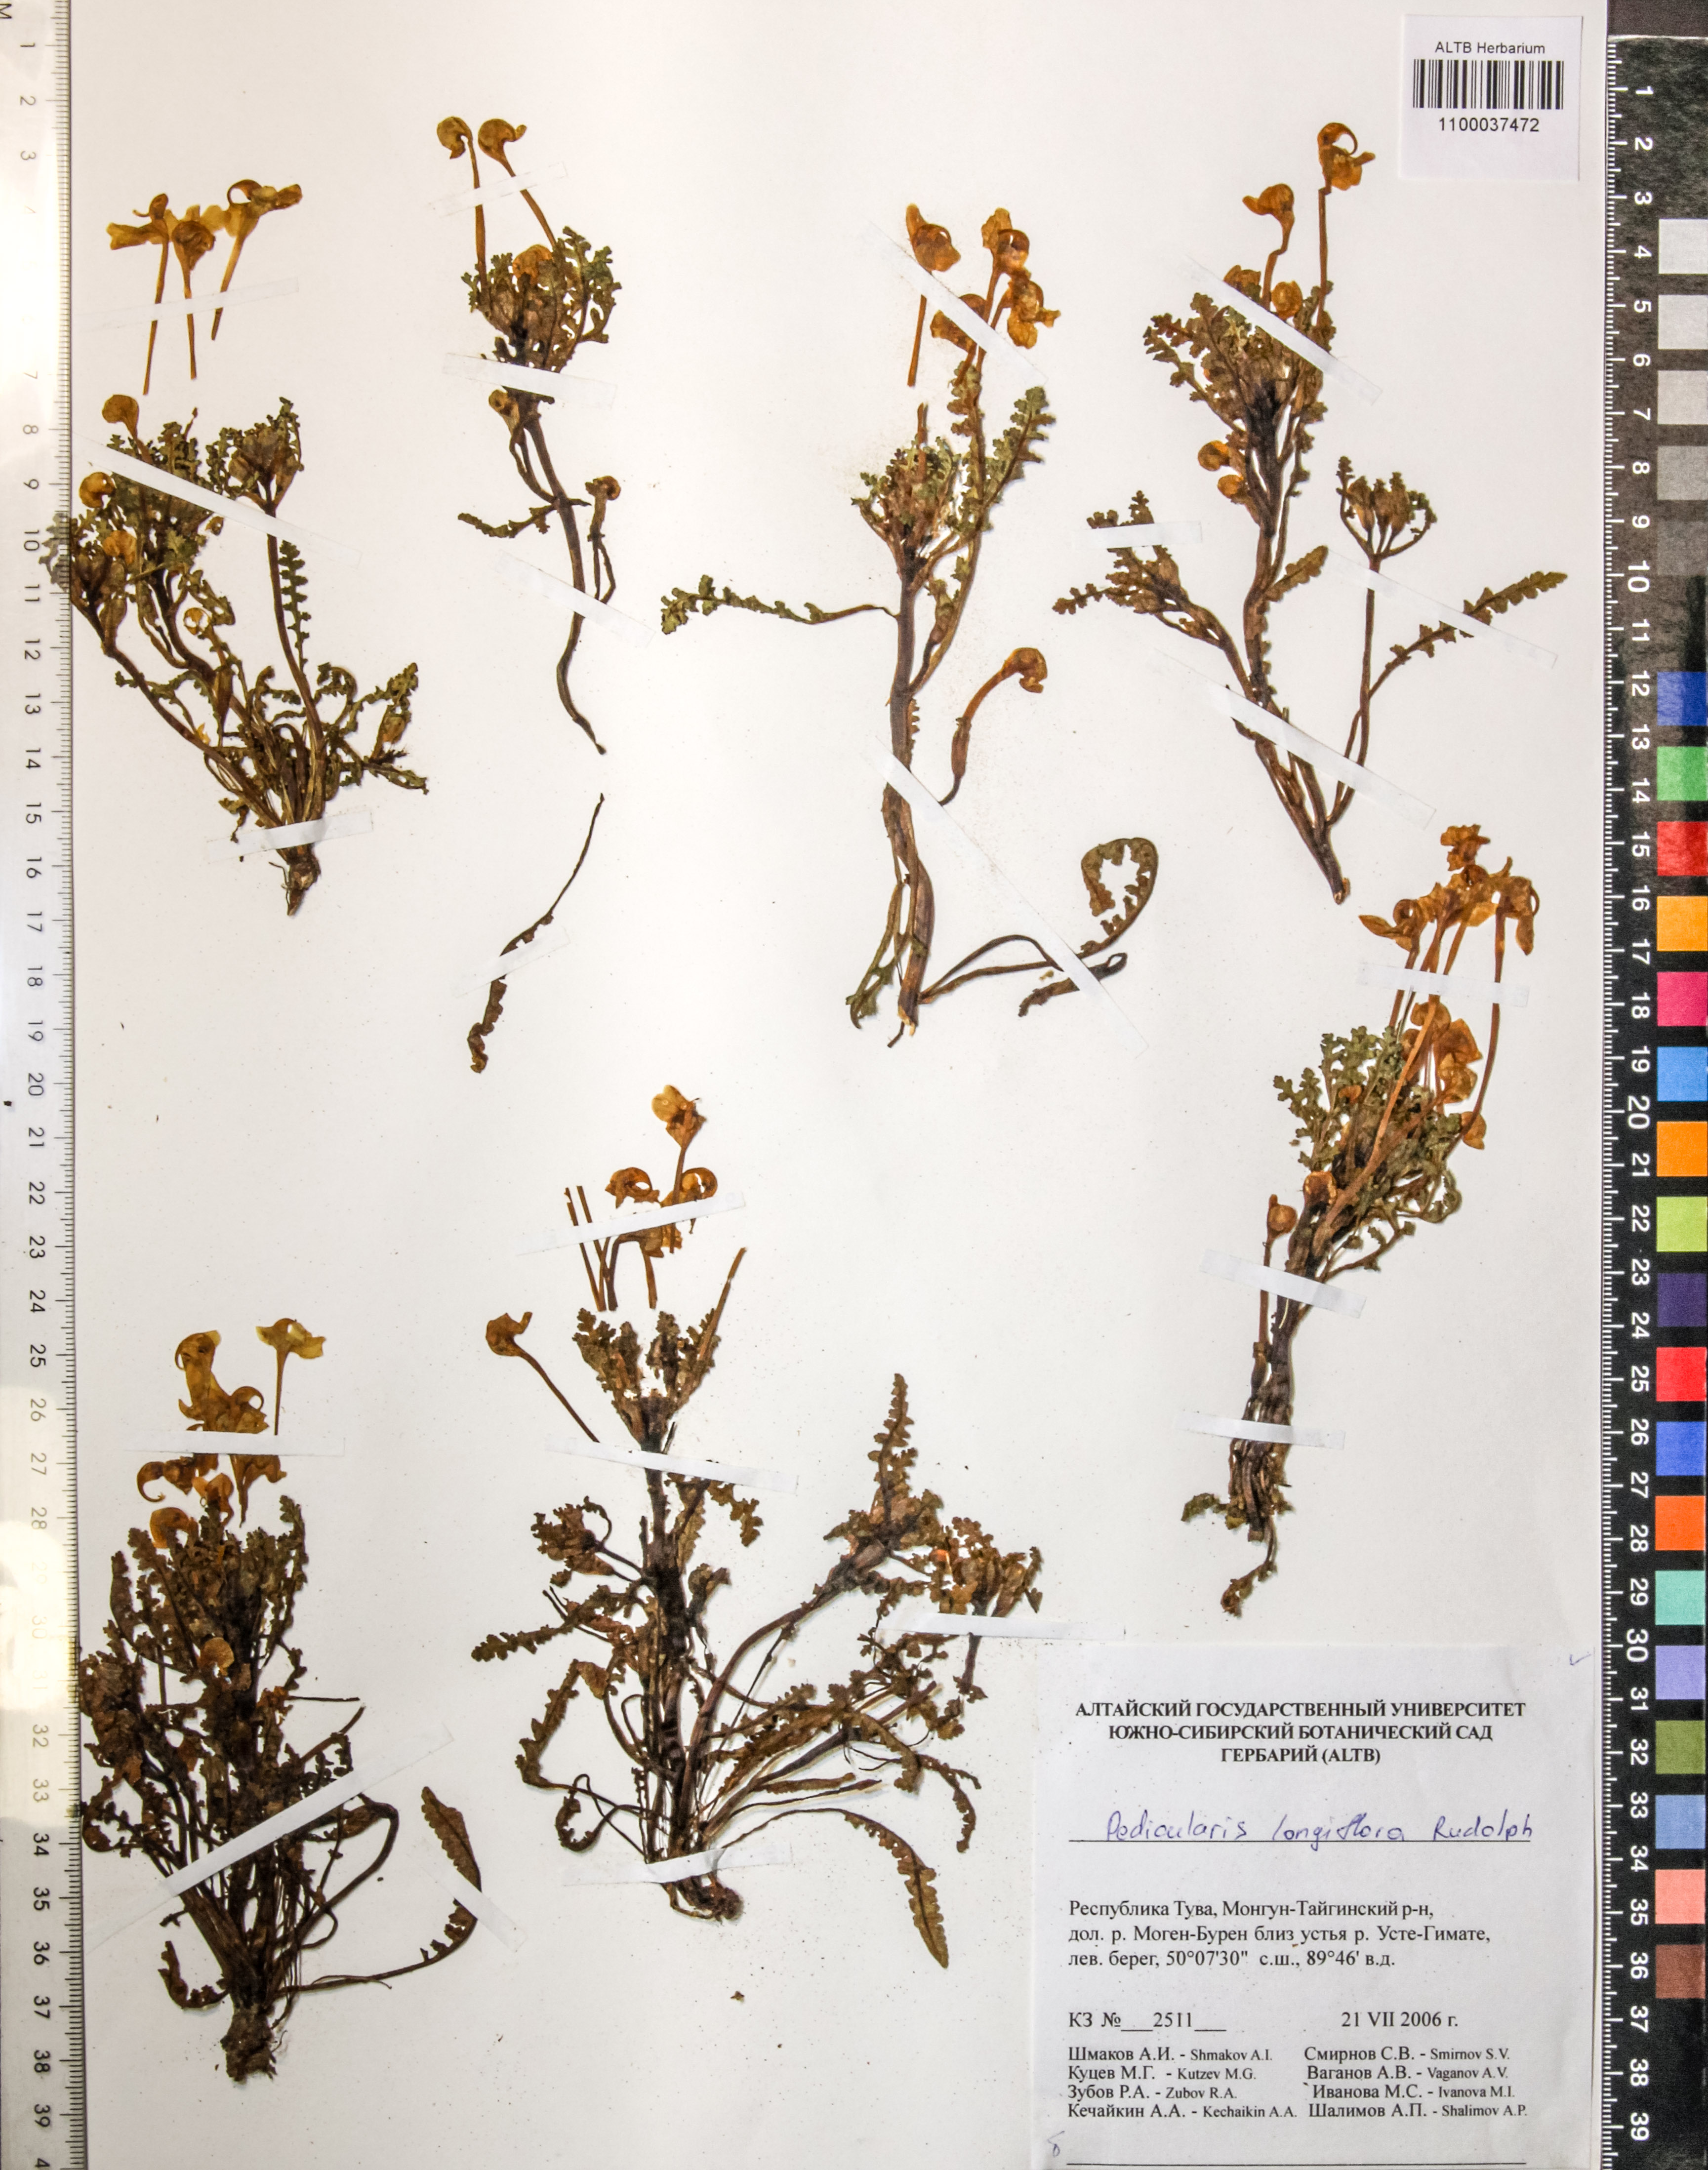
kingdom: Plantae
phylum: Tracheophyta
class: Magnoliopsida
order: Lamiales
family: Orobanchaceae
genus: Pedicularis
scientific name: Pedicularis longiflora
